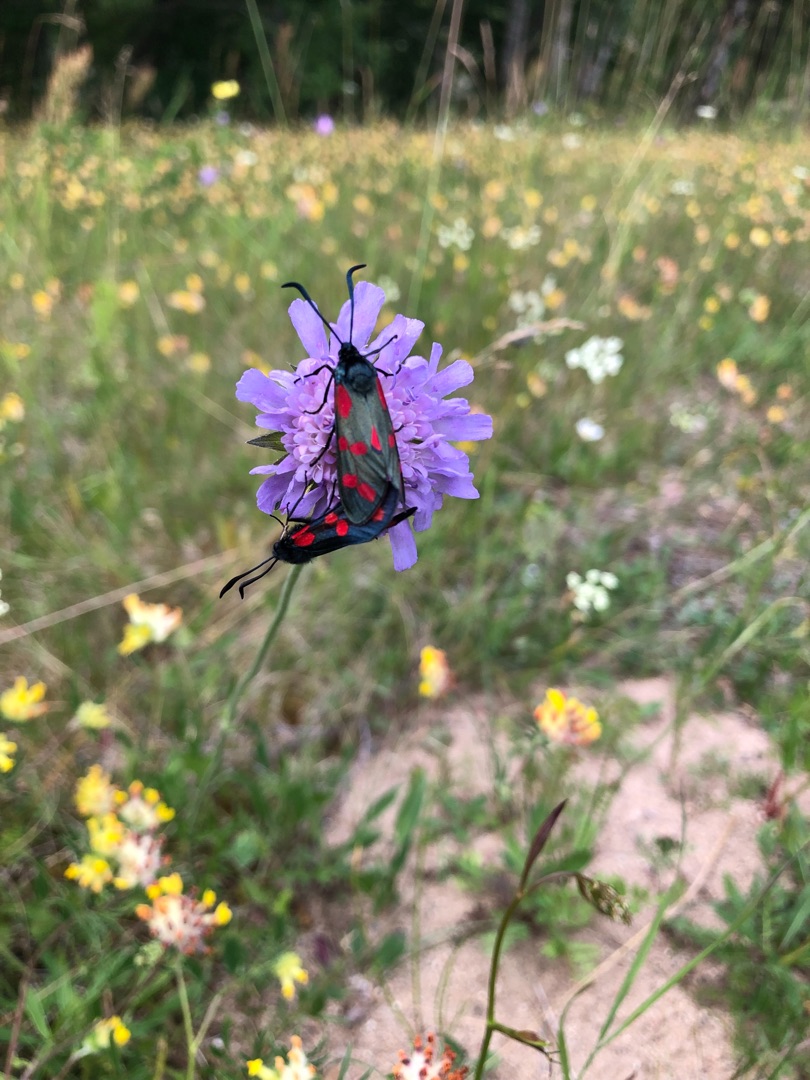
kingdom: Animalia
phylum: Arthropoda
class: Insecta
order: Lepidoptera
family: Zygaenidae
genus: Zygaena
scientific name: Zygaena filipendulae
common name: Seksplettet køllesværmer
